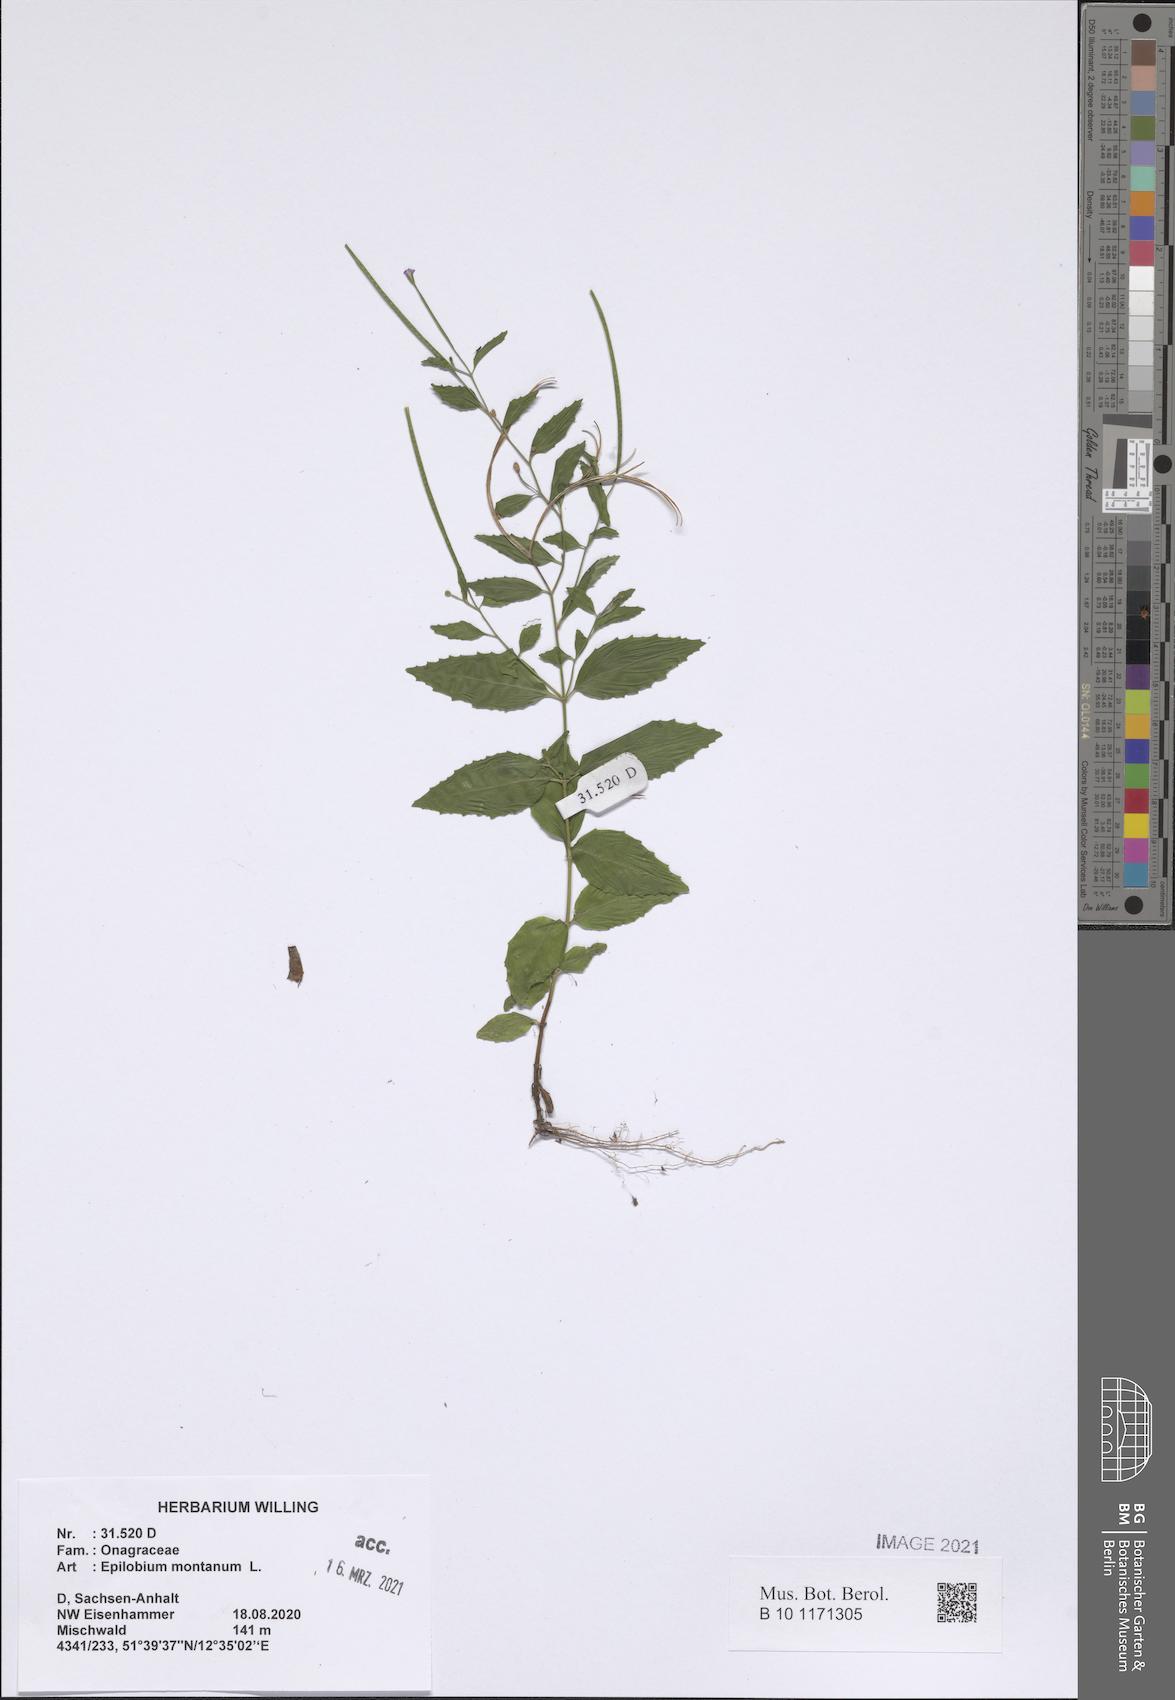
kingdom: Plantae
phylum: Tracheophyta
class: Magnoliopsida
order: Myrtales
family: Onagraceae
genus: Epilobium
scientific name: Epilobium montanum
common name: Broad-leaved willowherb
